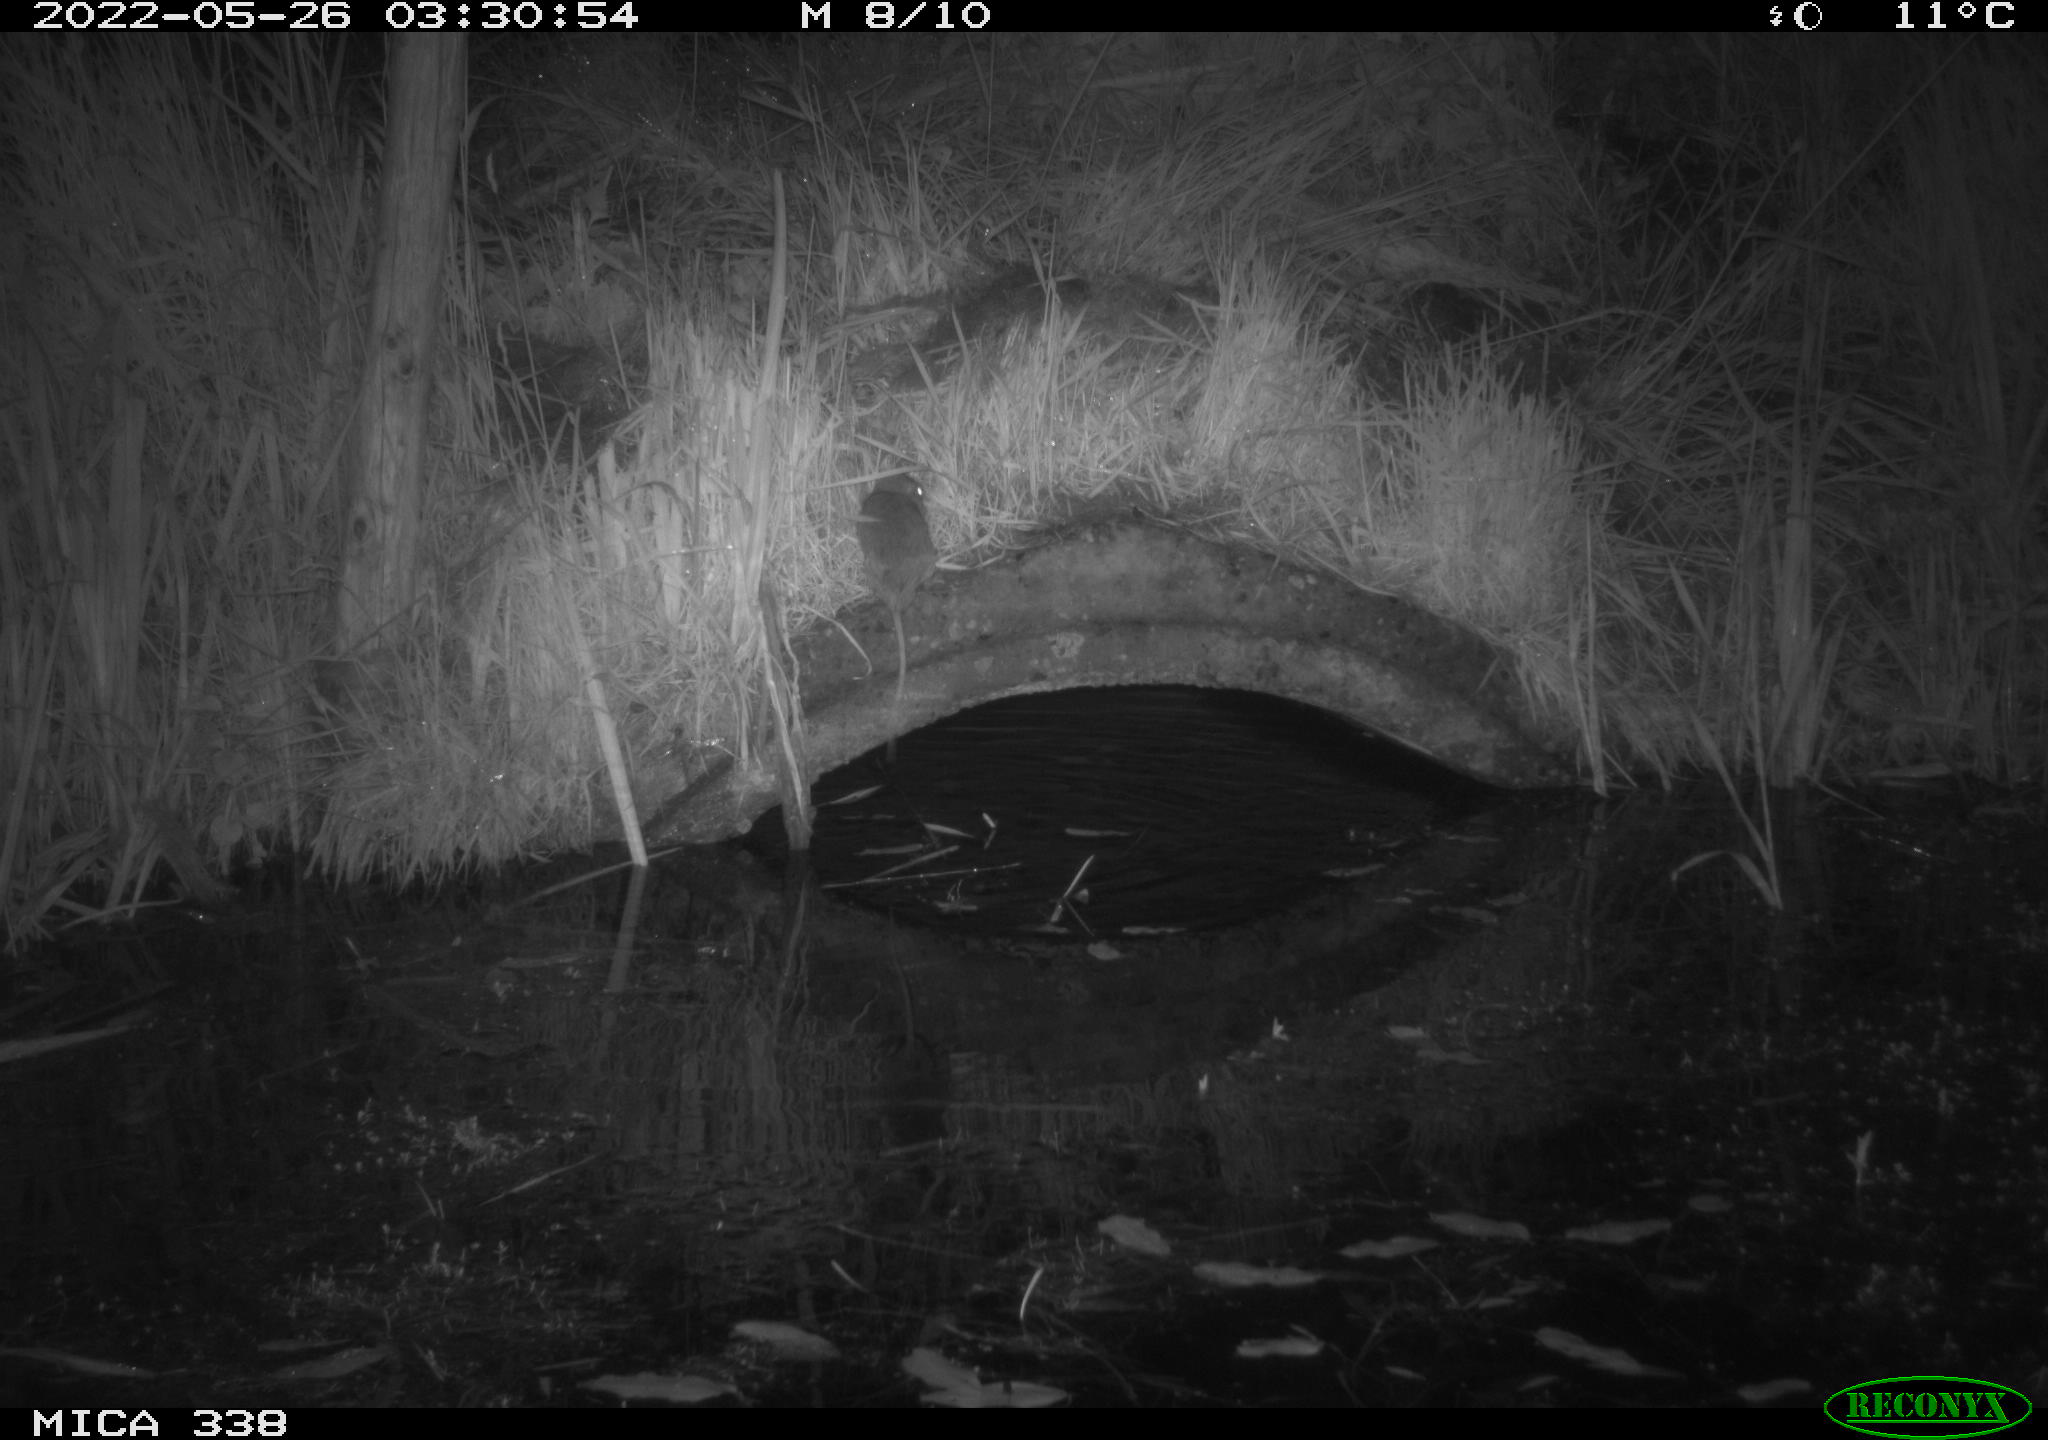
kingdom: Animalia
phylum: Chordata
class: Mammalia
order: Rodentia
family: Muridae
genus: Rattus
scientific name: Rattus norvegicus
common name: Brown rat
